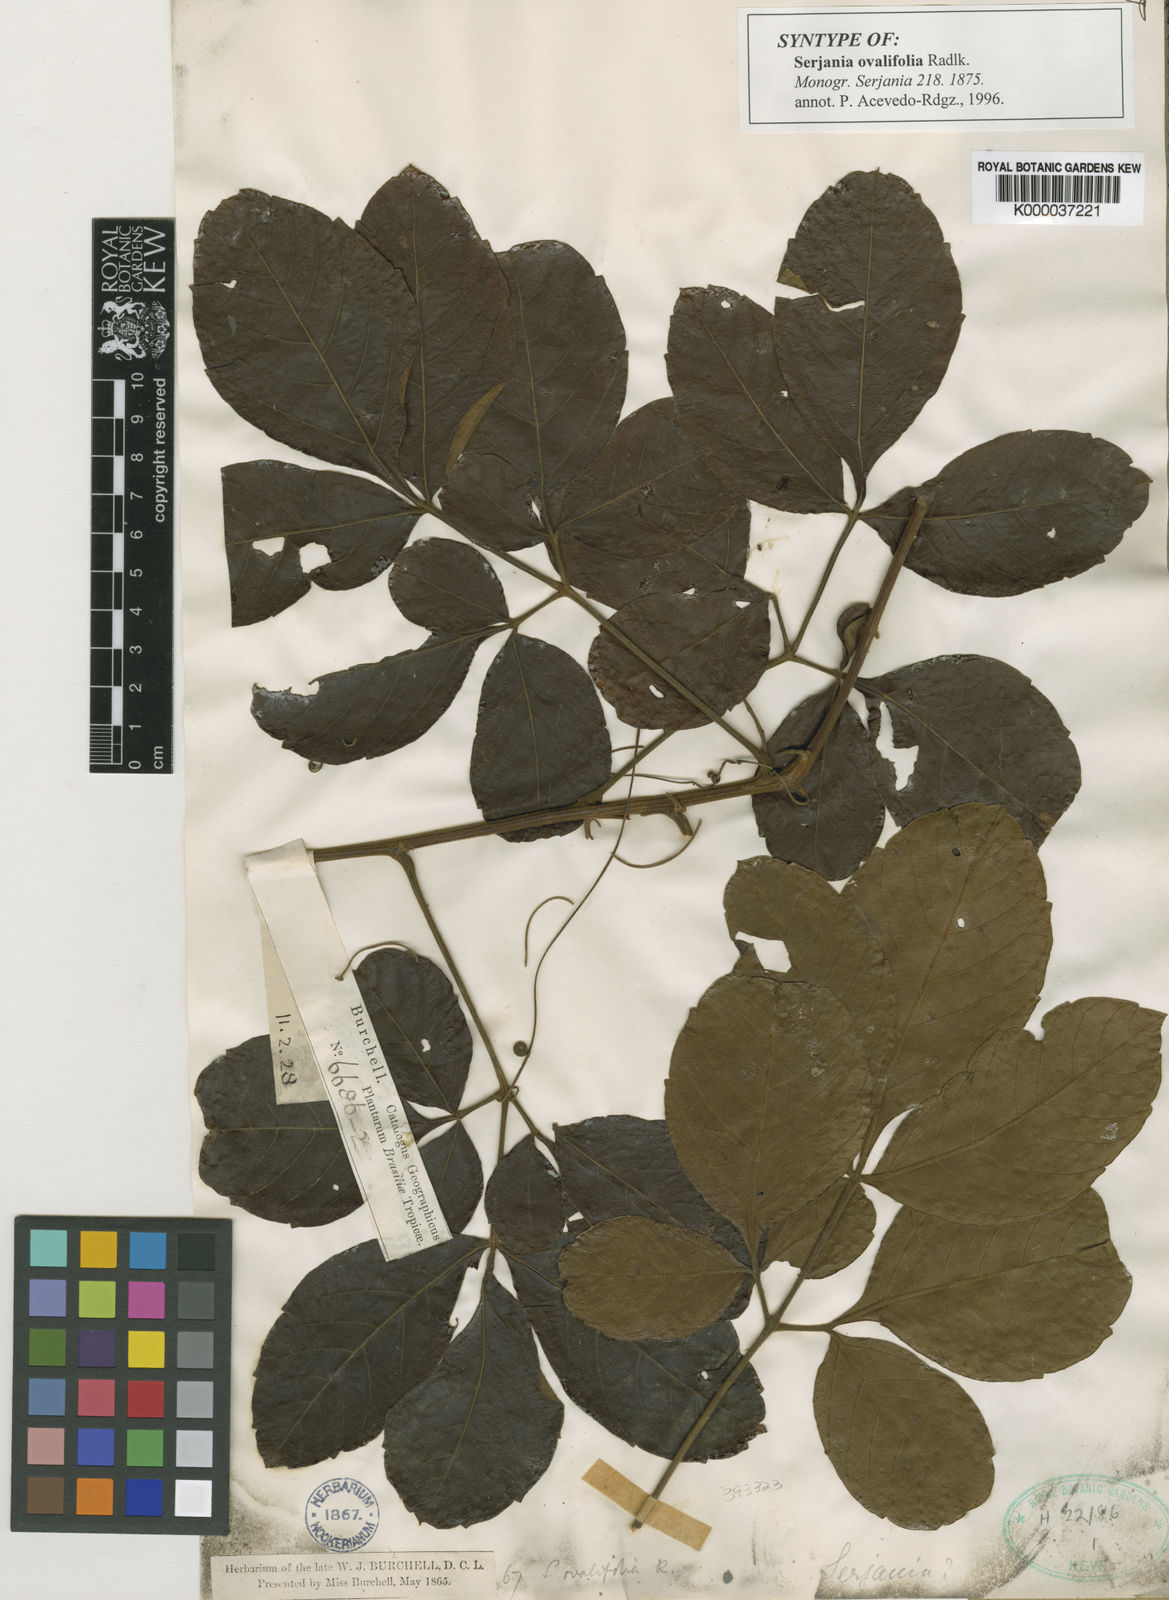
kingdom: Plantae
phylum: Tracheophyta
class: Magnoliopsida
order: Sapindales
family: Sapindaceae
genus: Serjania
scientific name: Serjania ovalifolia
